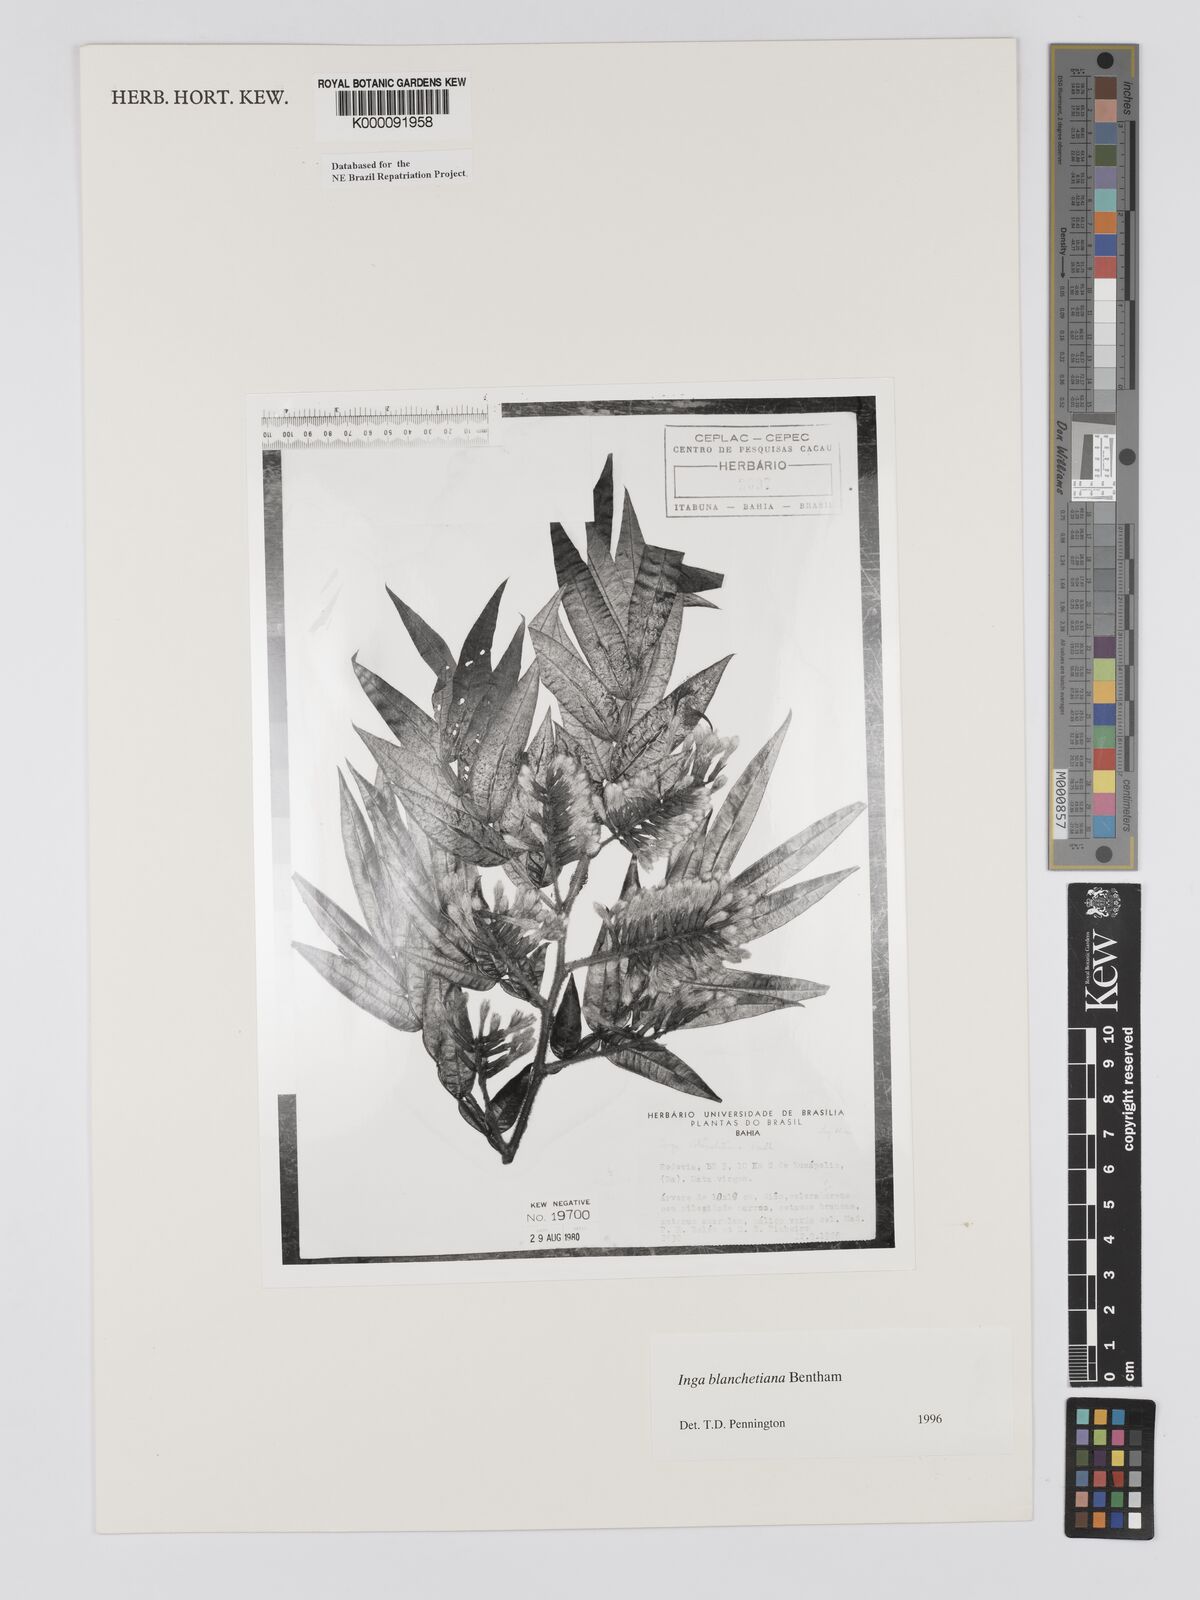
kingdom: Plantae
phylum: Tracheophyta
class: Magnoliopsida
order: Fabales
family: Fabaceae
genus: Inga
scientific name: Inga blanchetiana
